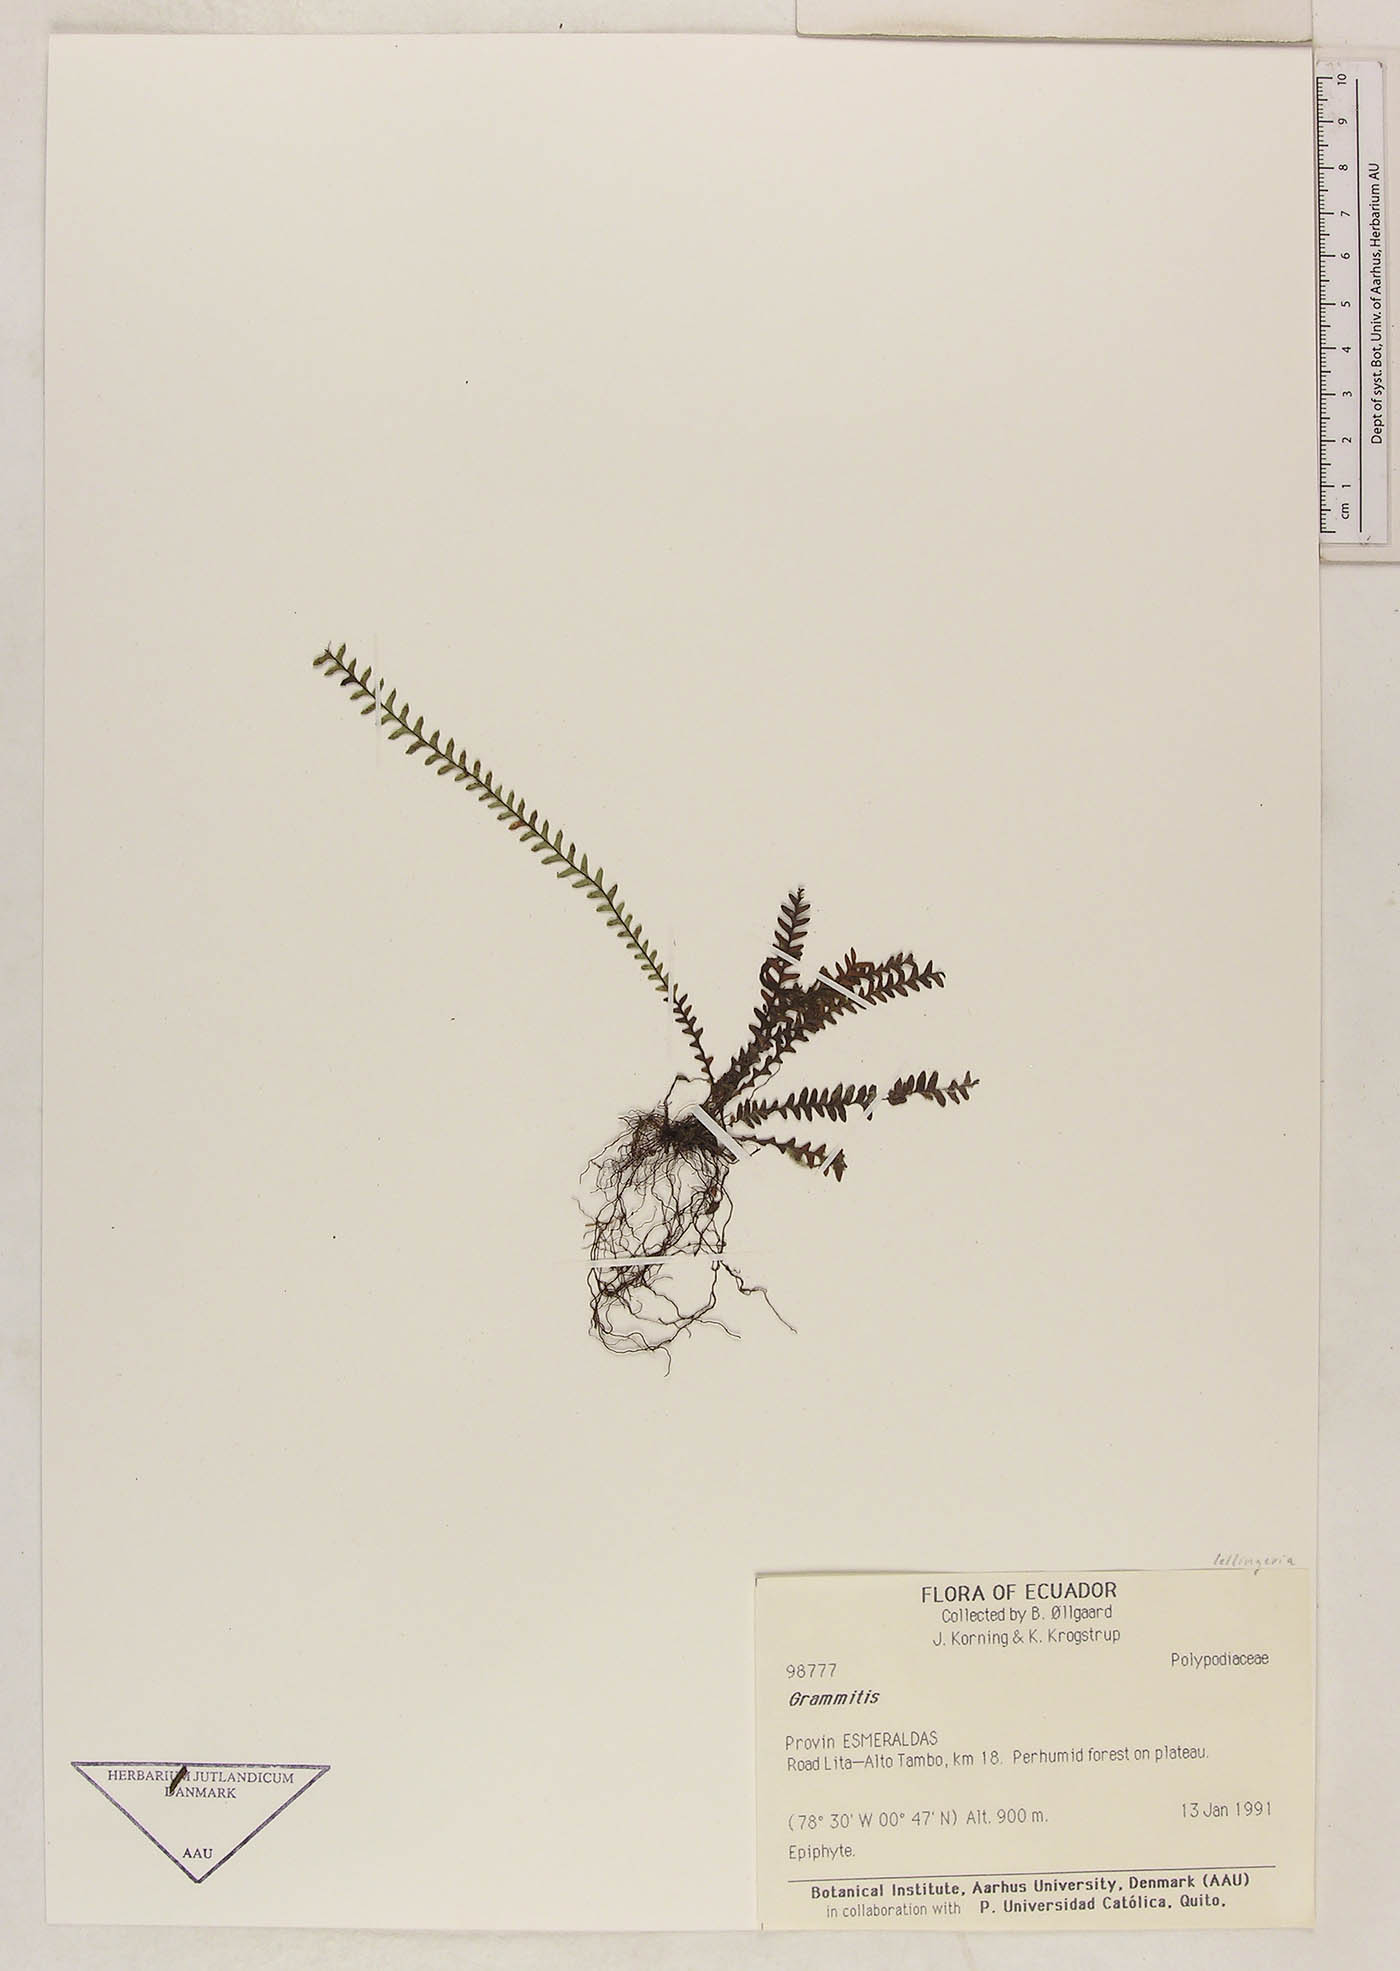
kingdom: Plantae
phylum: Tracheophyta
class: Polypodiopsida
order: Polypodiales
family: Polypodiaceae
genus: Lellingeria
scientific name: Lellingeria suspensa
